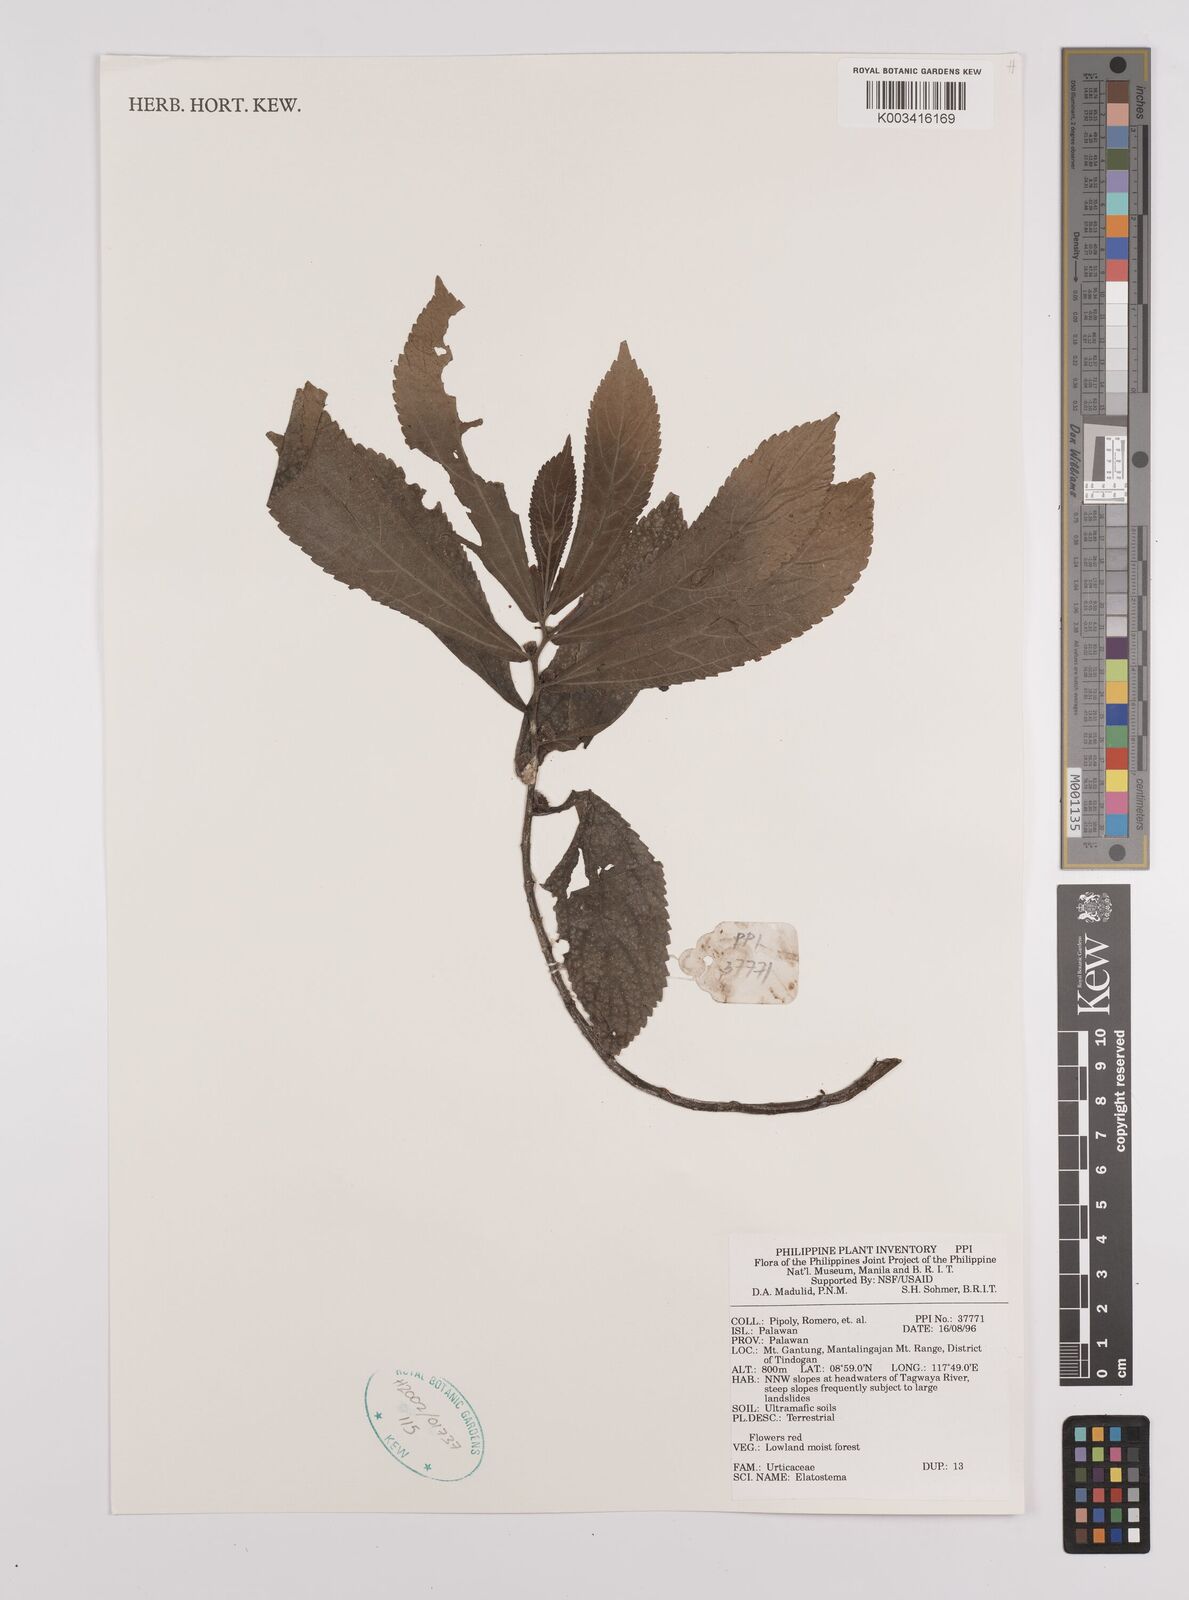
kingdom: Plantae
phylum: Tracheophyta
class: Magnoliopsida
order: Rosales
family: Urticaceae
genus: Elatostema
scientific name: Elatostema
